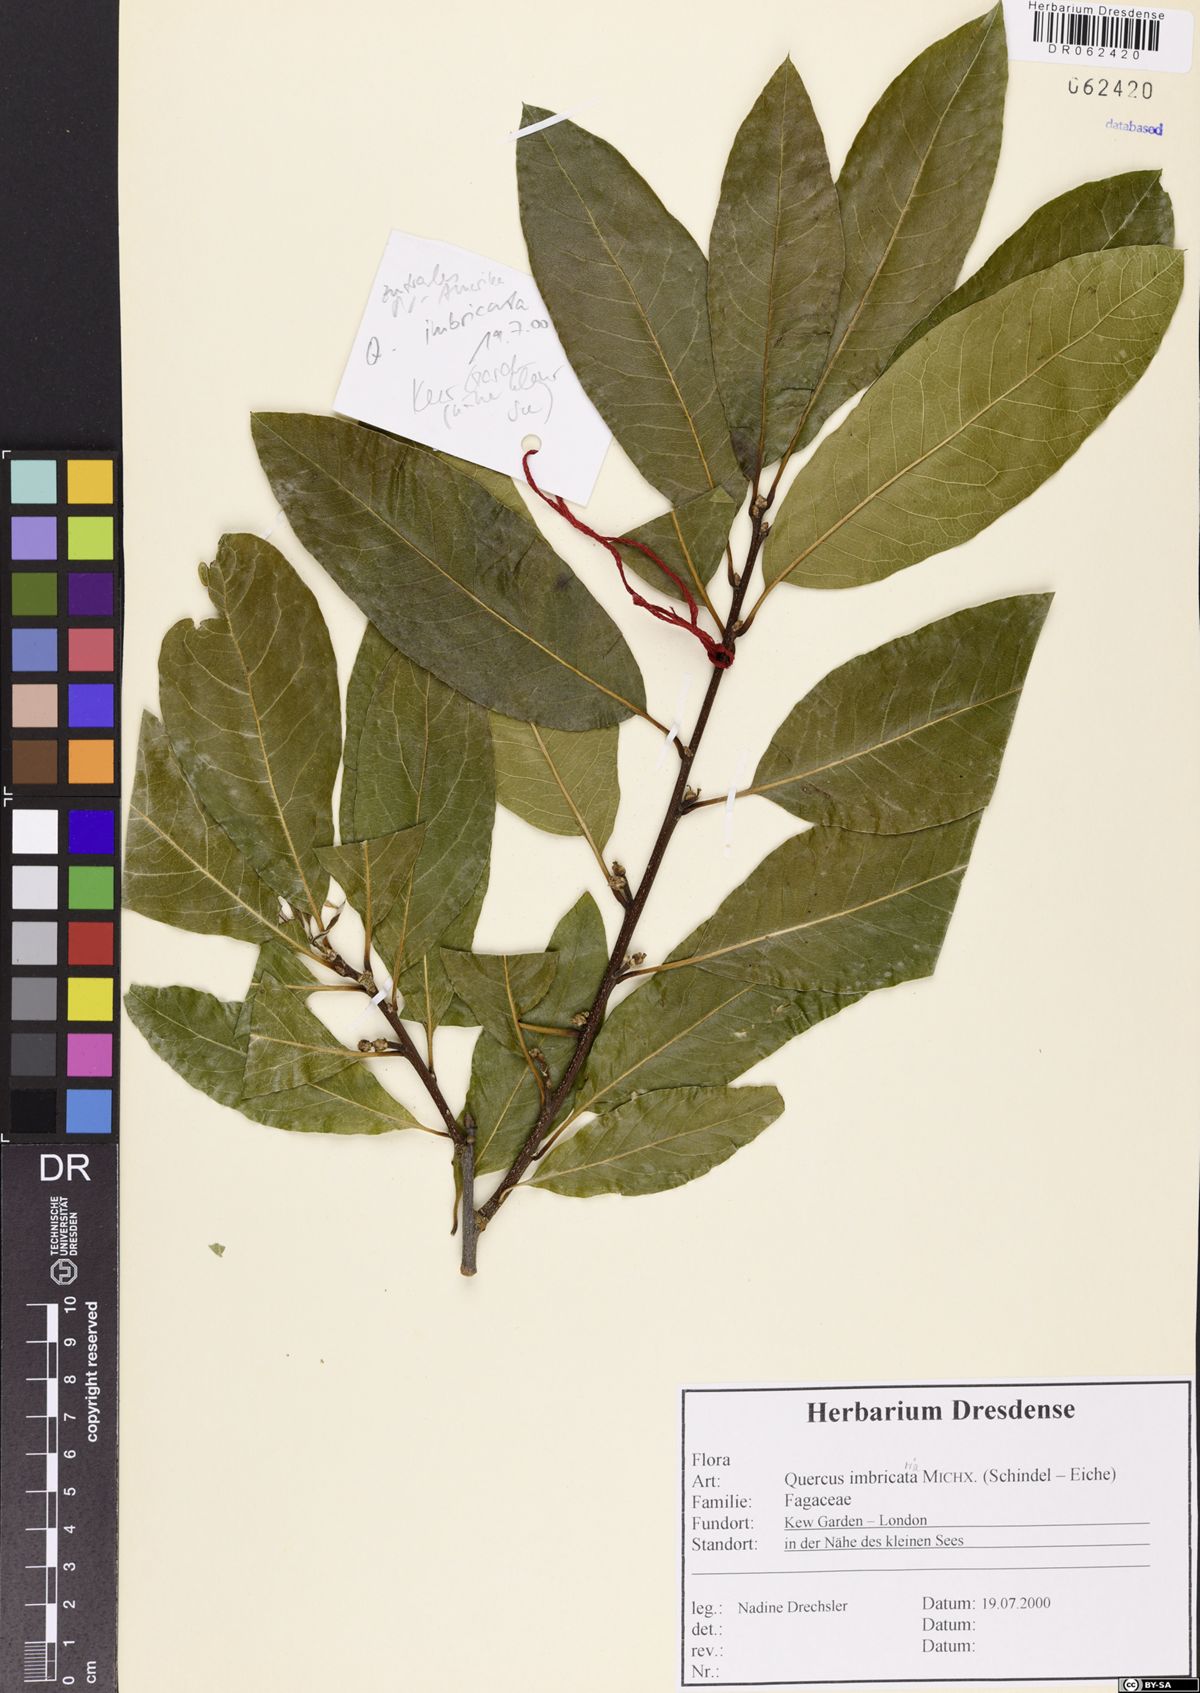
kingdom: Plantae
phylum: Tracheophyta
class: Magnoliopsida
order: Fagales
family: Fagaceae
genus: Quercus
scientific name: Quercus imbricaria
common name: Shingle oak
